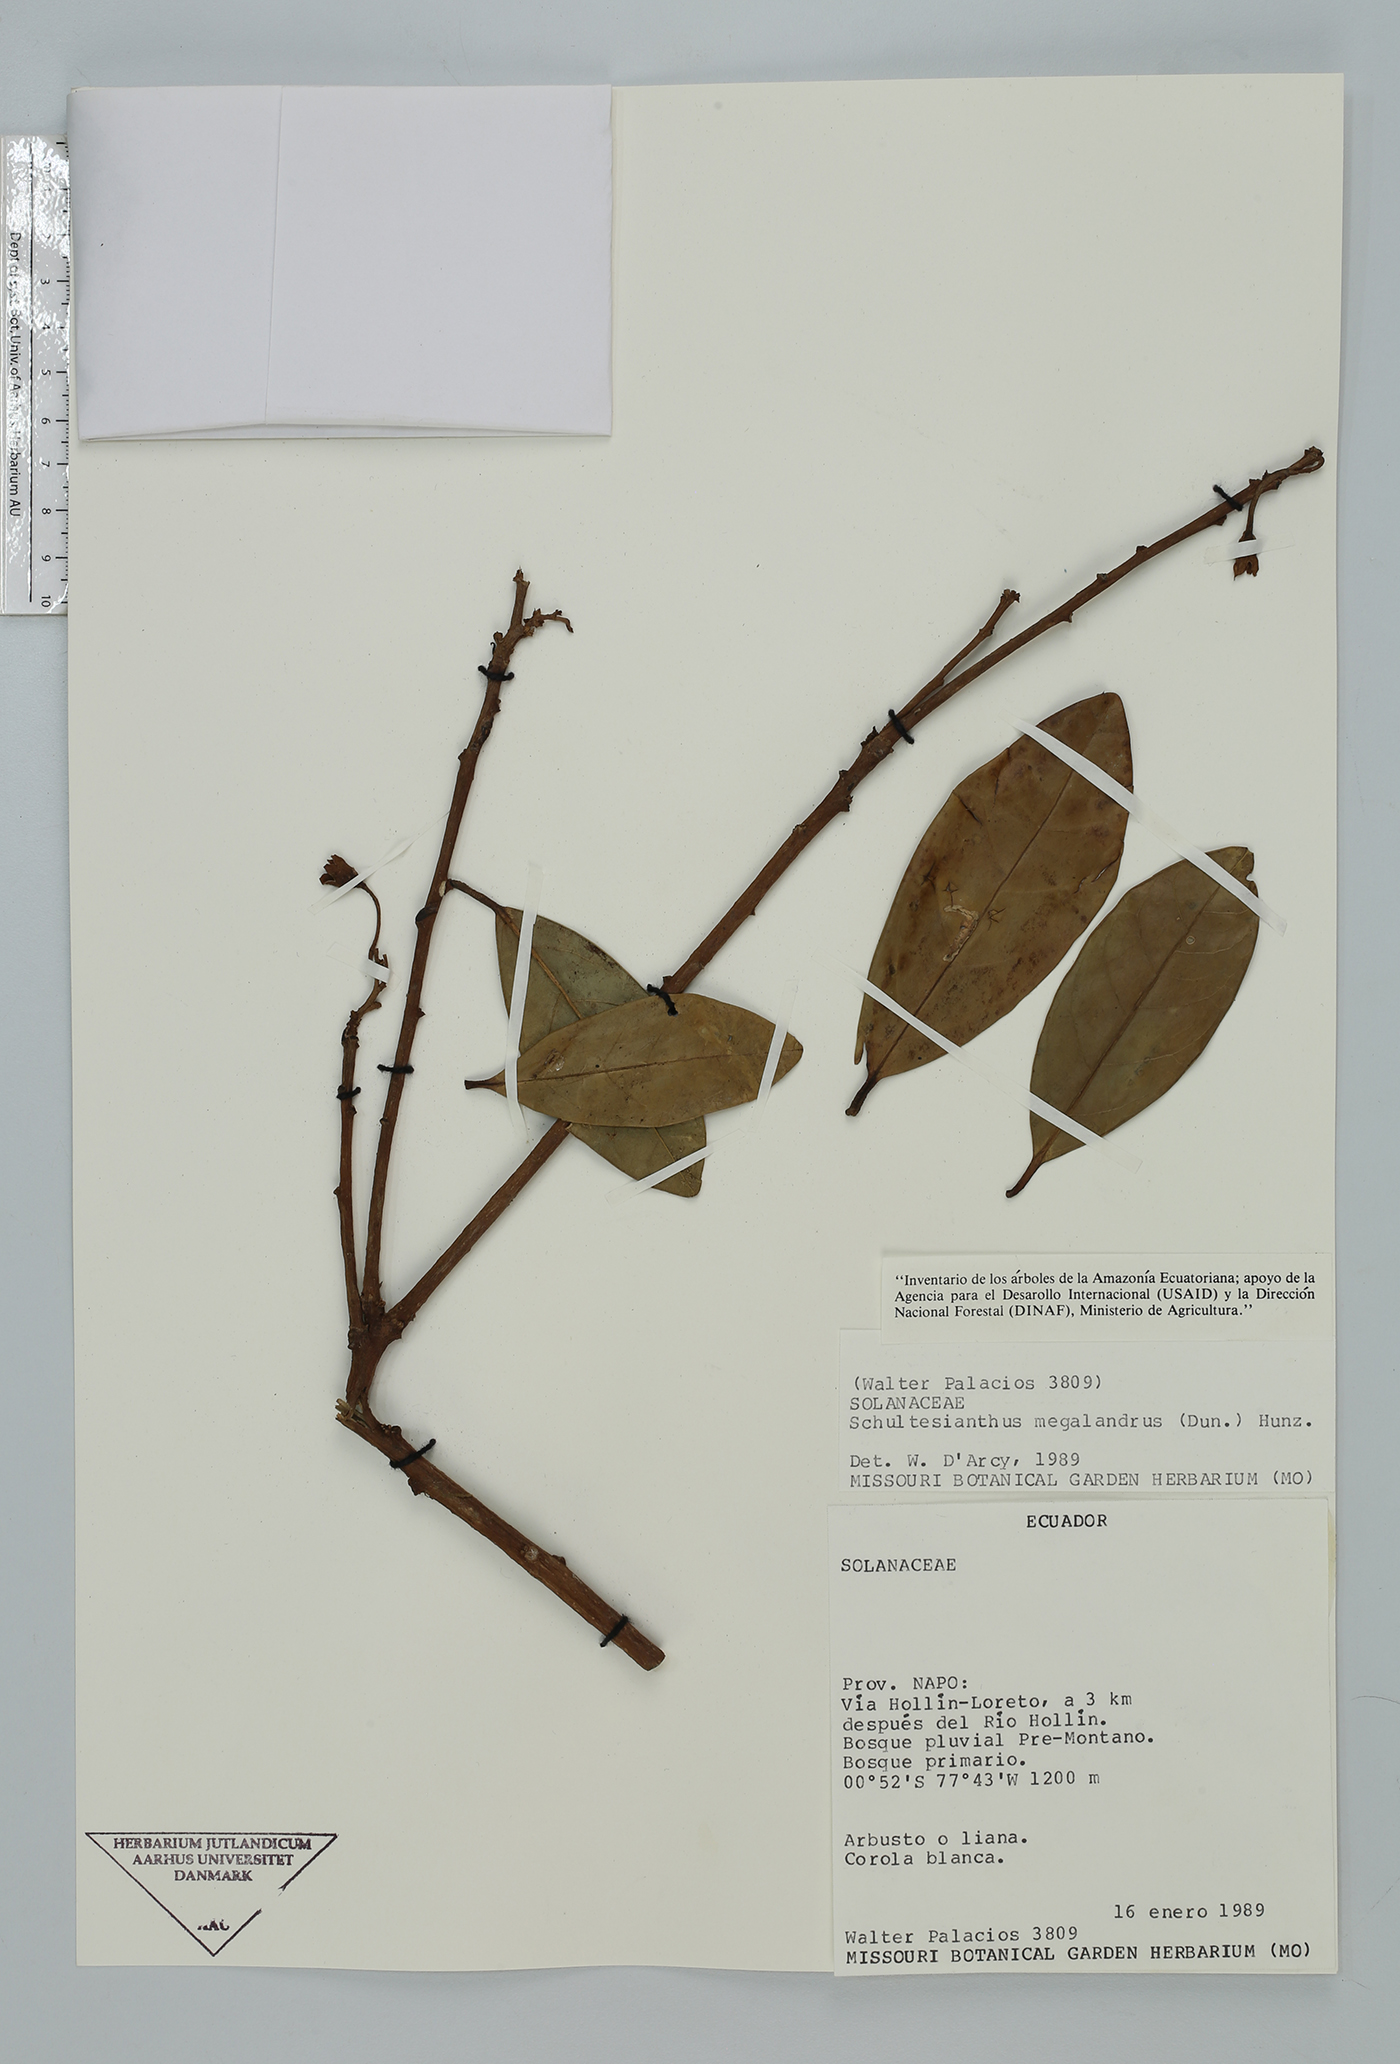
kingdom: Plantae
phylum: Tracheophyta
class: Magnoliopsida
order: Solanales
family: Solanaceae
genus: Schultesianthus
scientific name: Schultesianthus leucanthus
